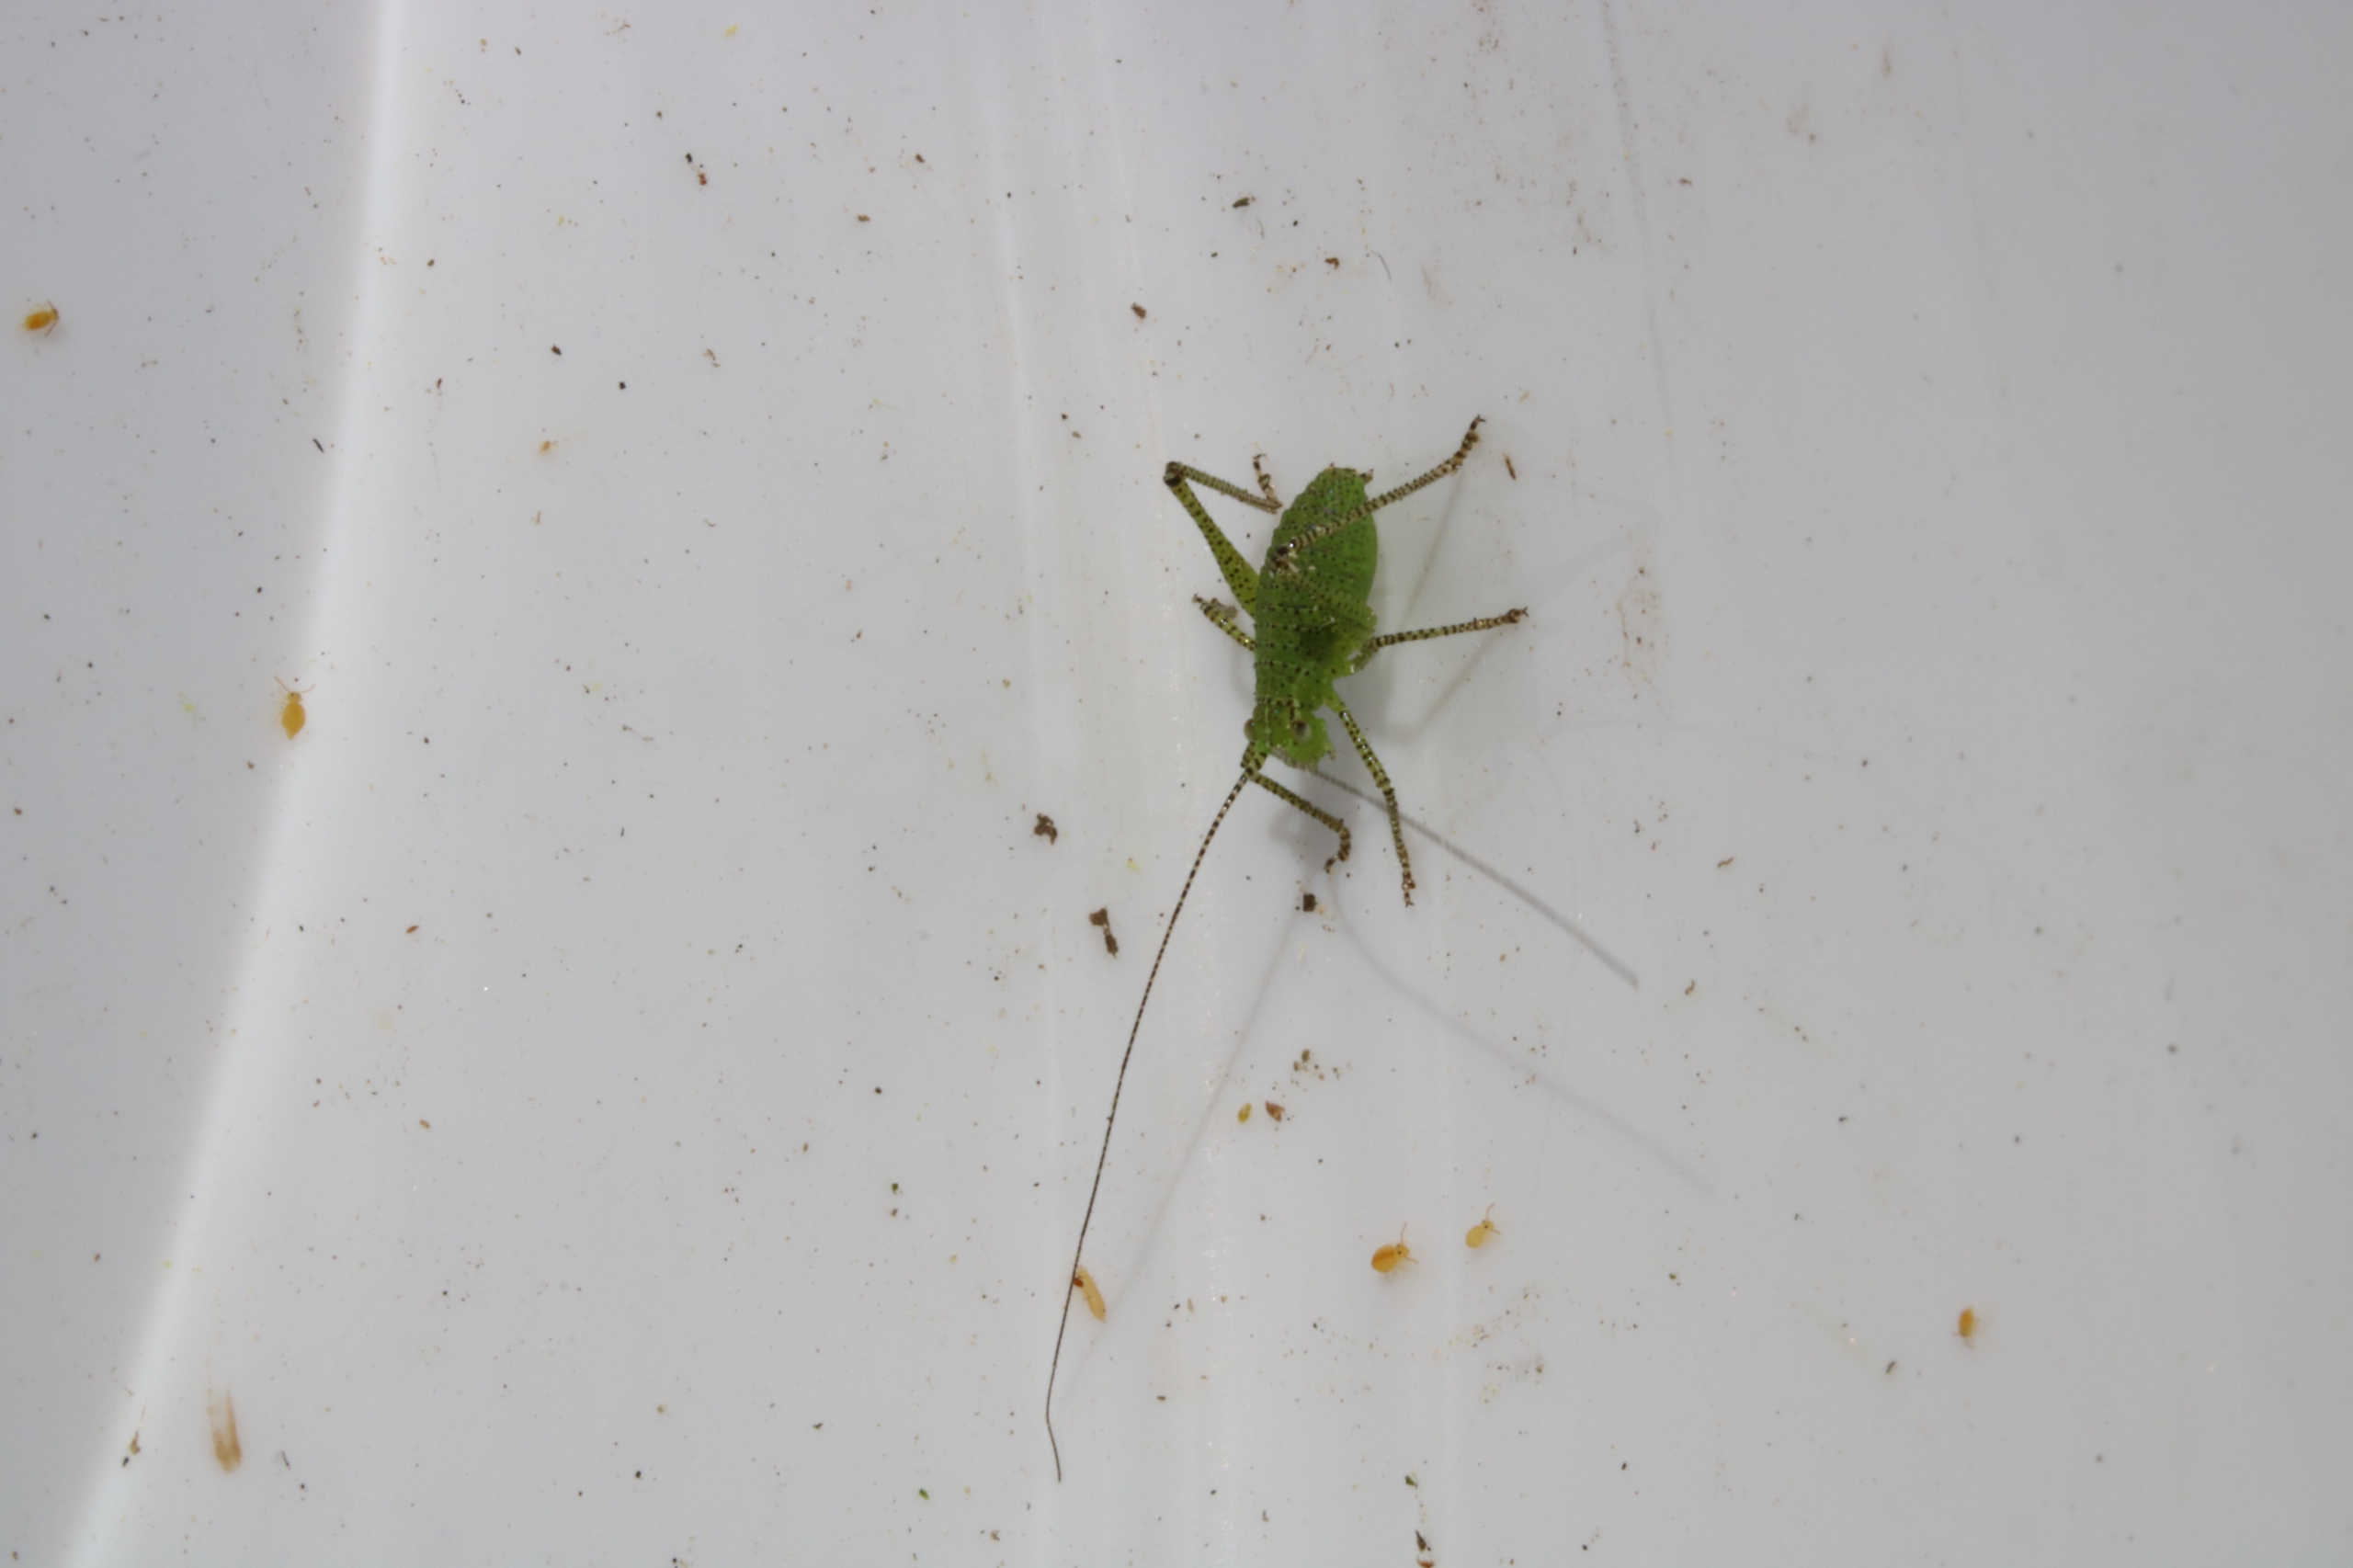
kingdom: Animalia
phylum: Arthropoda
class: Insecta
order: Orthoptera
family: Tettigoniidae
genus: Leptophyes
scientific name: Leptophyes punctatissima
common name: Krumknivgræshoppe
